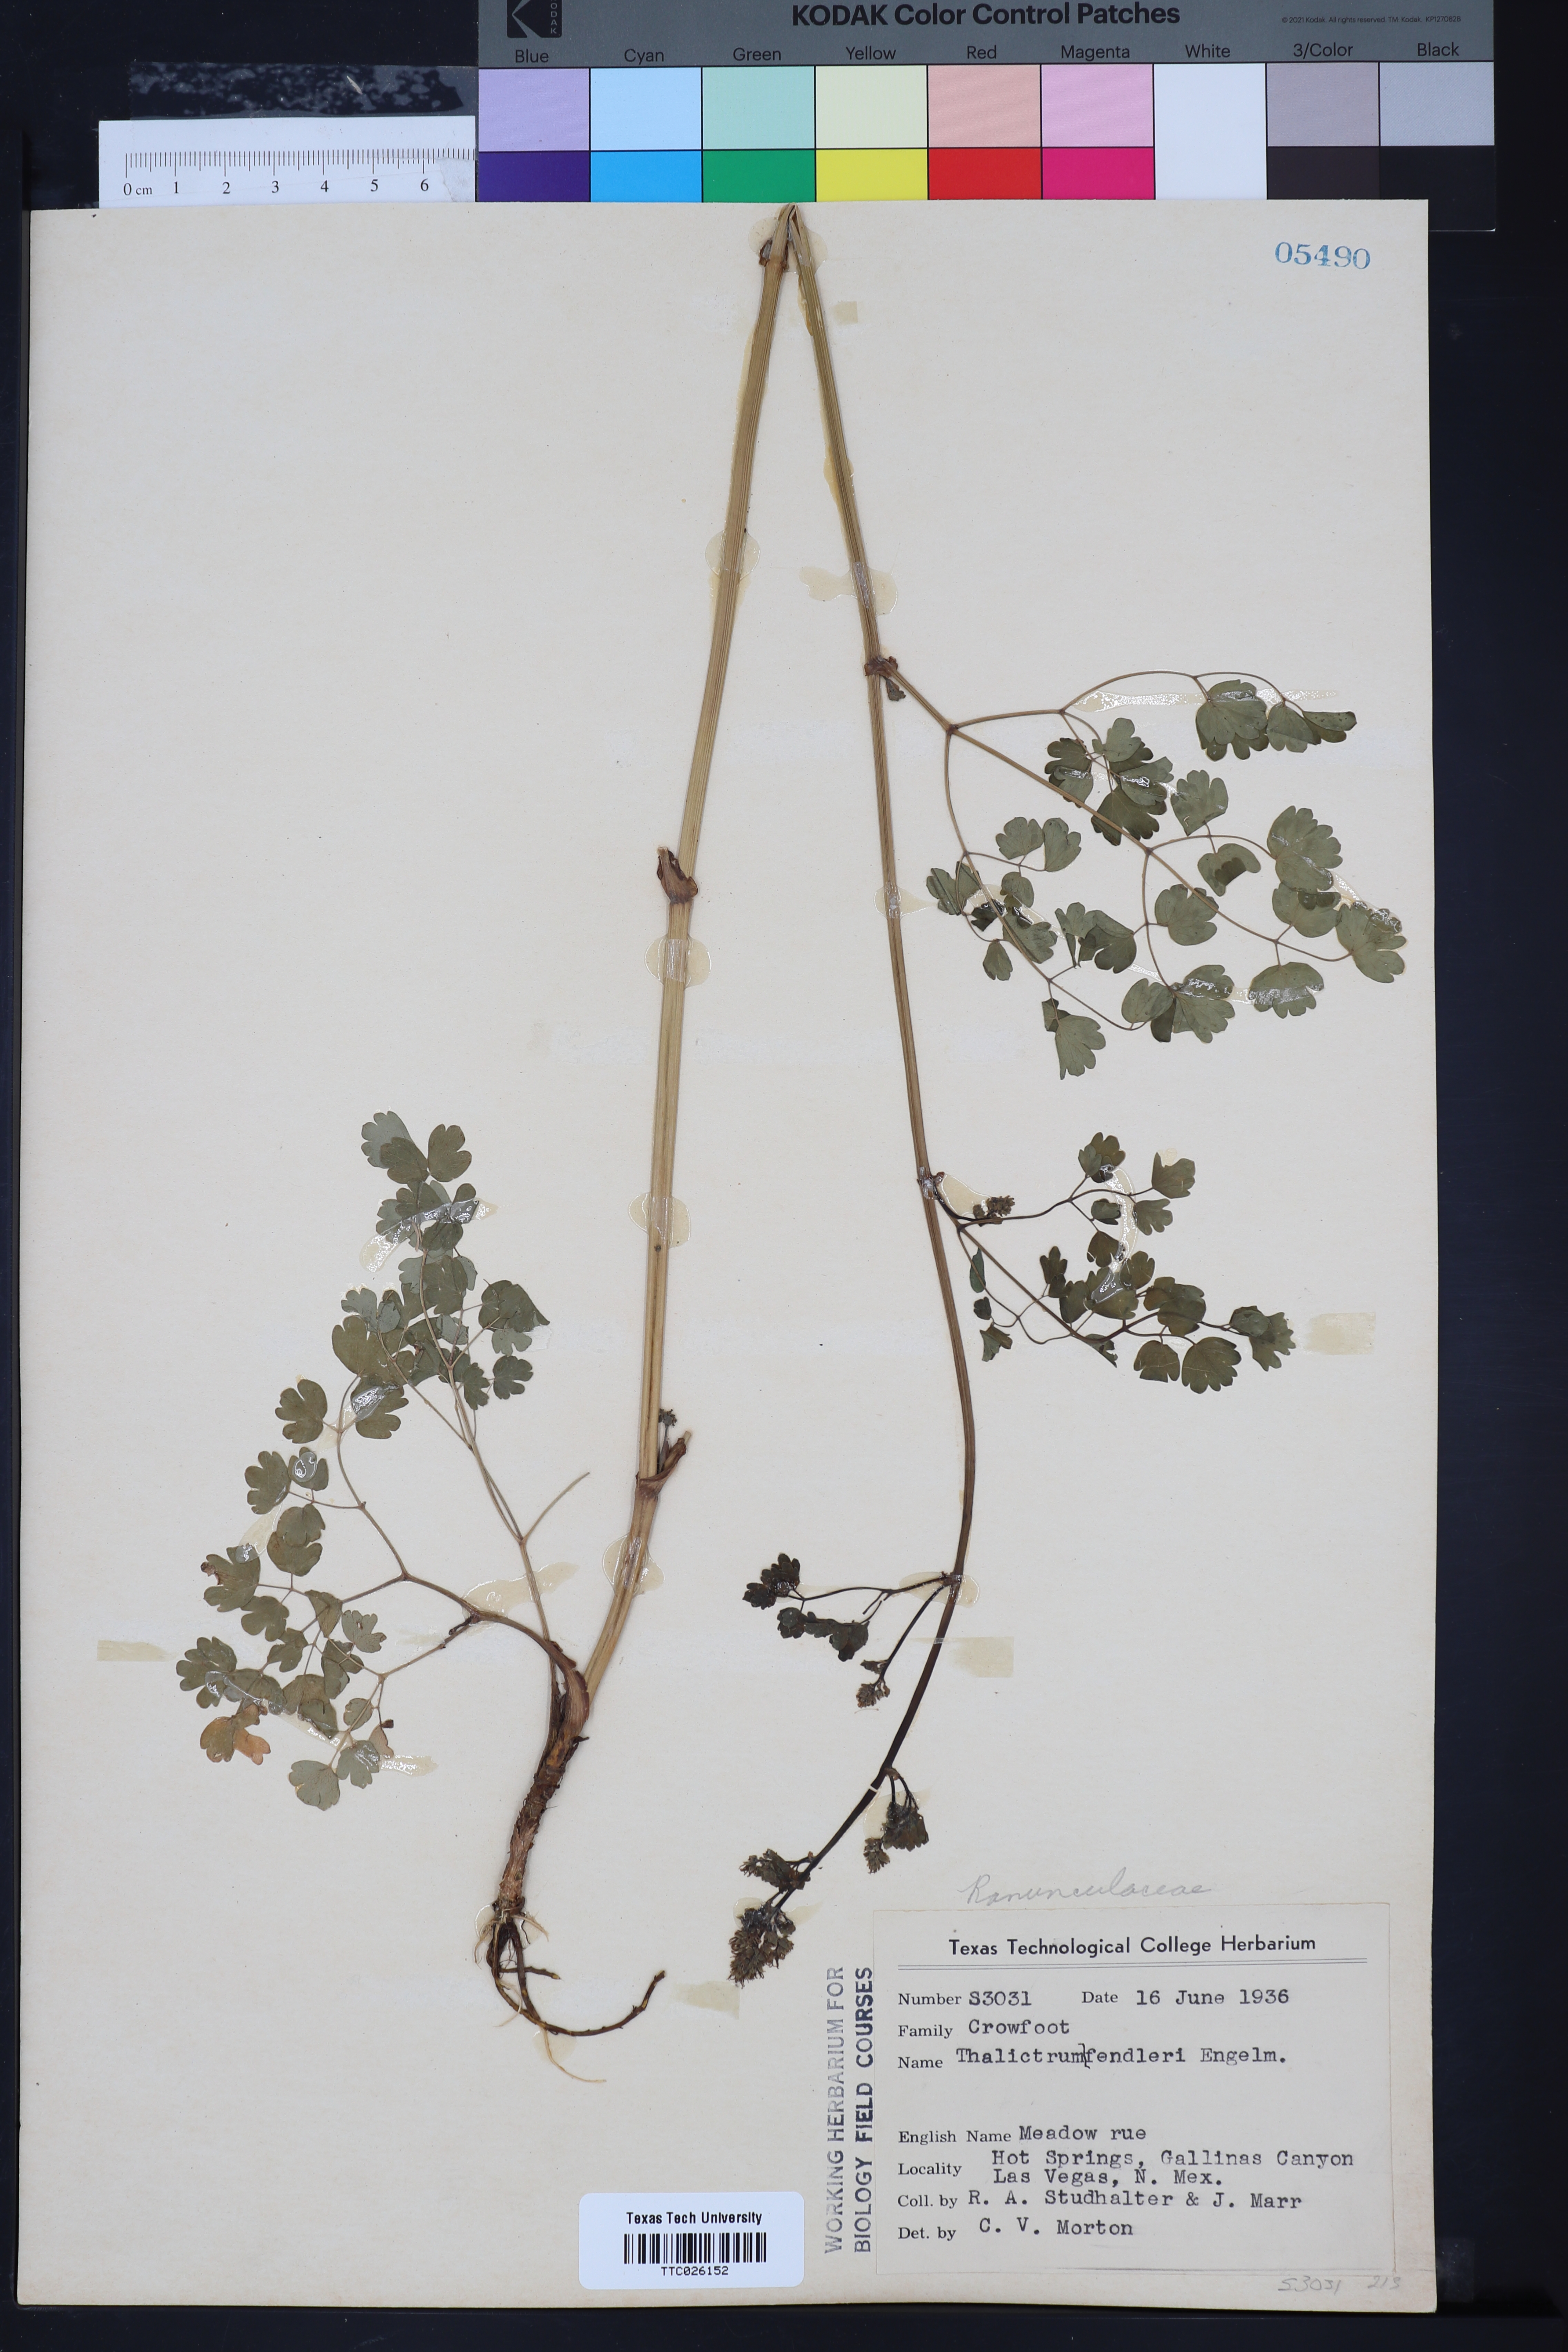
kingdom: Plantae
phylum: Tracheophyta
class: Magnoliopsida
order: Ranunculales
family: Ranunculaceae
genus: Thalictrum
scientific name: Thalictrum fendleri
